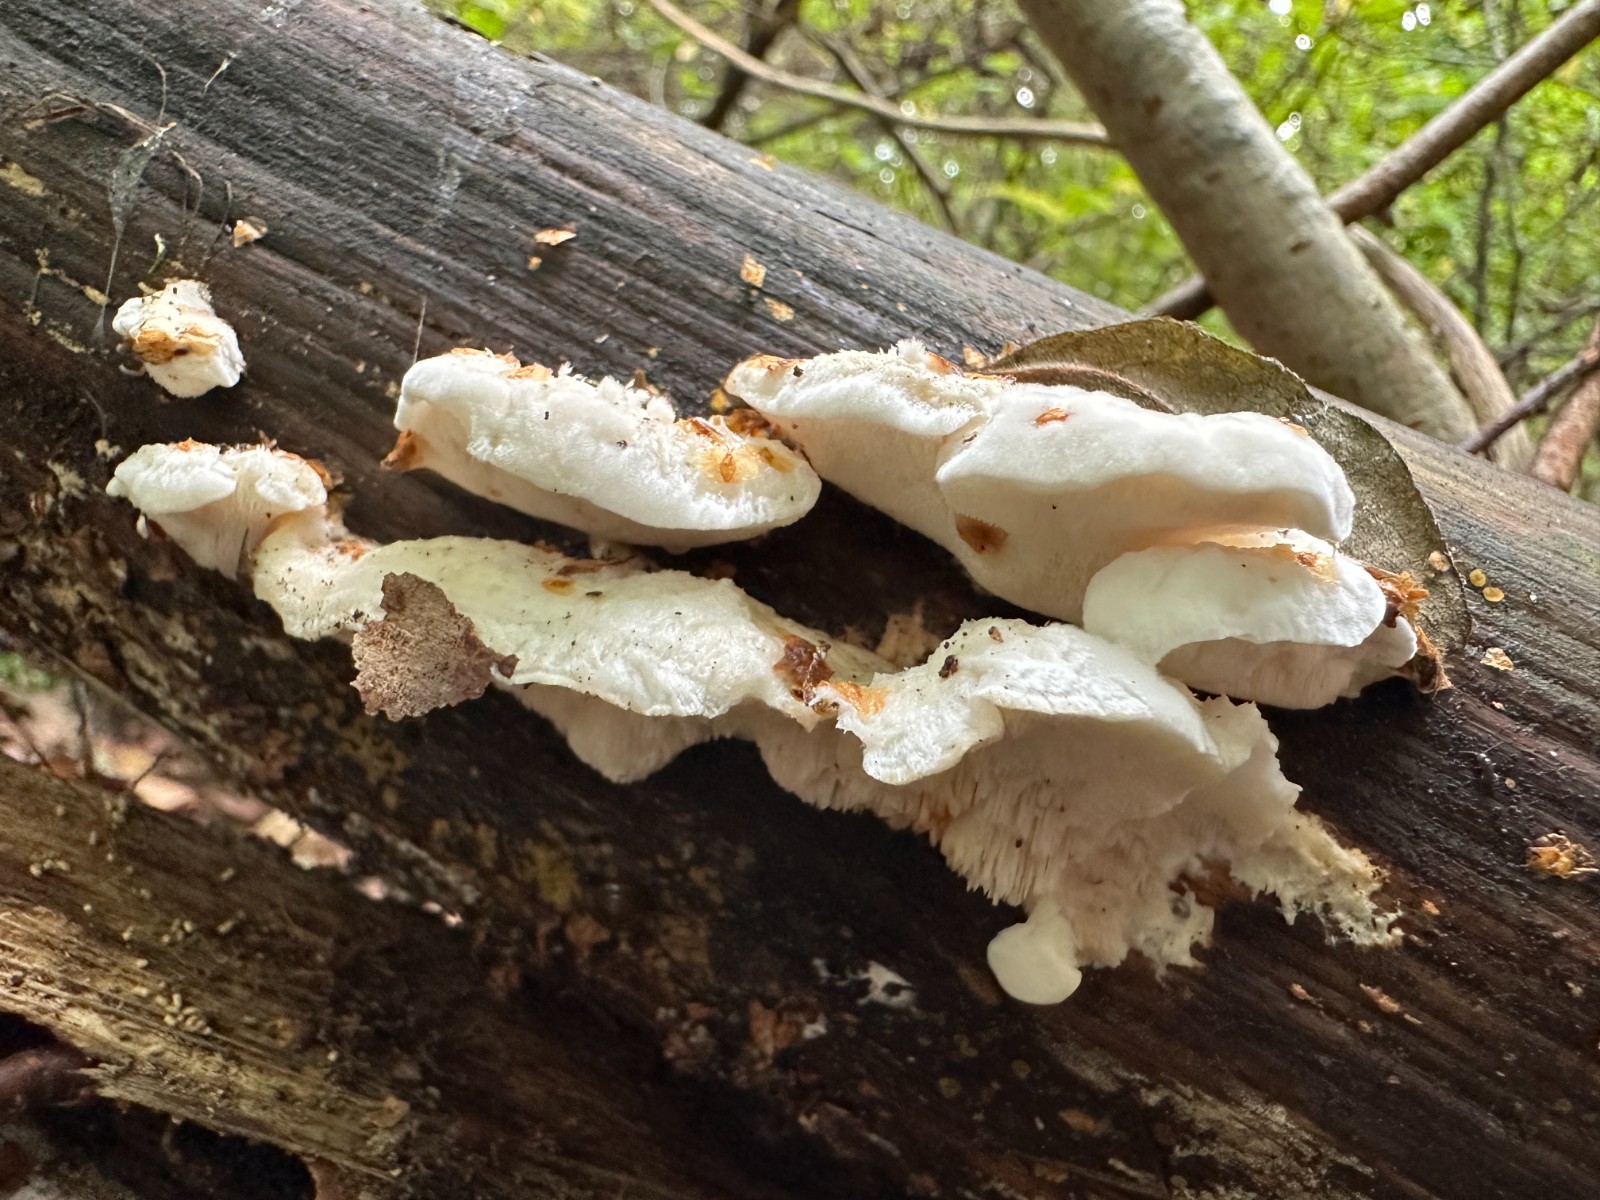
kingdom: Fungi
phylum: Basidiomycota
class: Agaricomycetes
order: Polyporales
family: Incrustoporiaceae
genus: Tyromyces
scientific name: Tyromyces chioneus
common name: stor blødporesvamp
